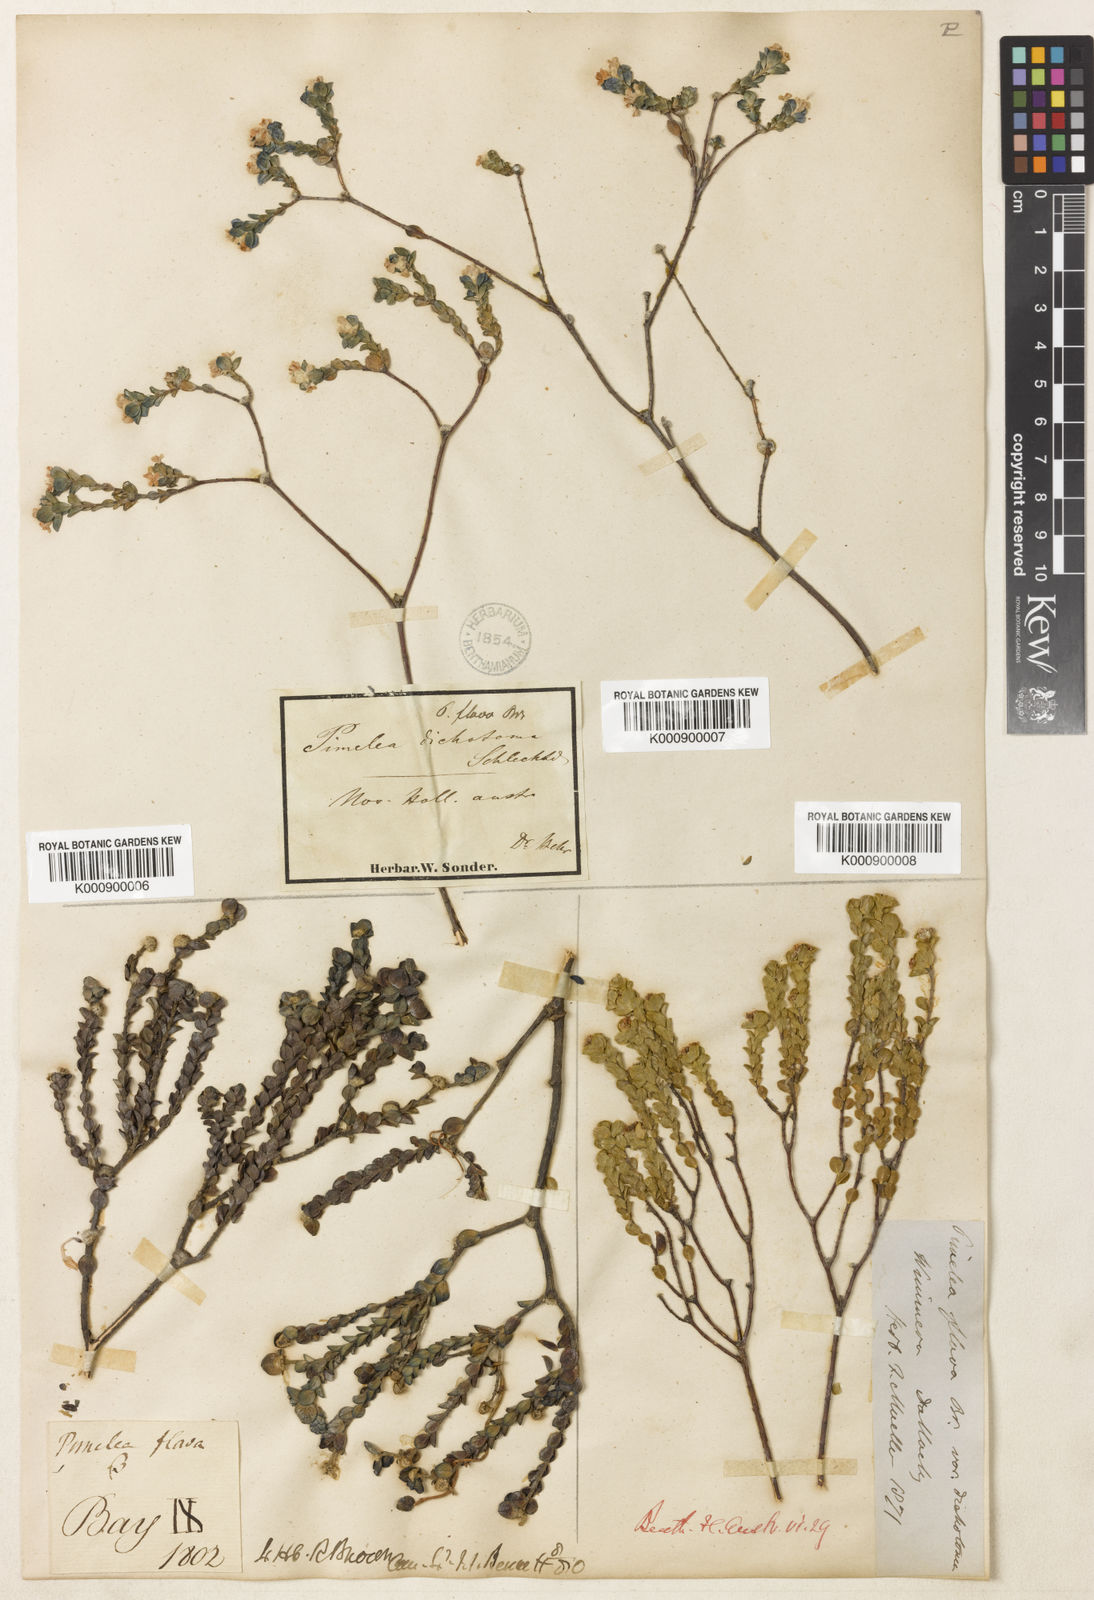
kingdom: Plantae
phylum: Tracheophyta
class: Magnoliopsida
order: Malvales
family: Thymelaeaceae
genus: Pimelea
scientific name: Pimelea sulphurea
